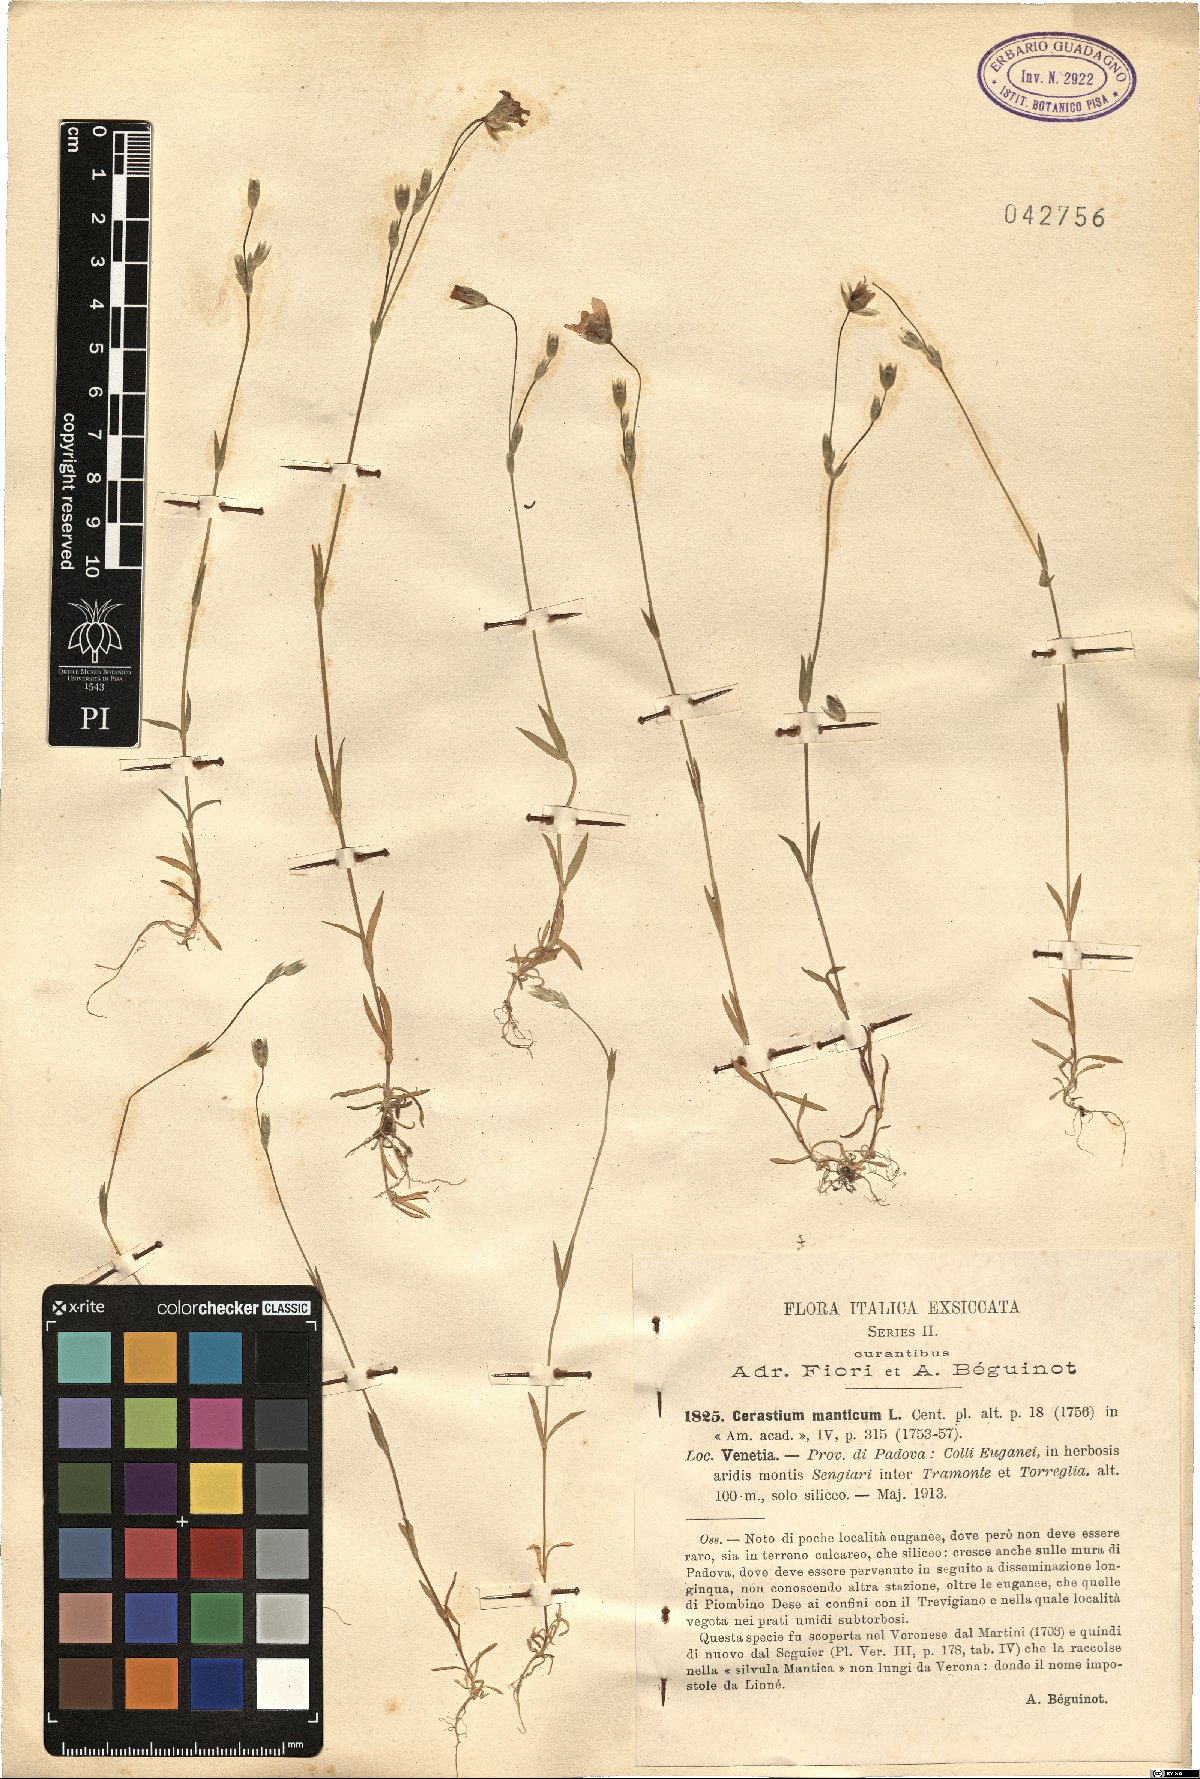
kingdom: Plantae
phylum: Tracheophyta
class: Magnoliopsida
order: Caryophyllales
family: Caryophyllaceae
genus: Moenchia
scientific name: Moenchia mantica
